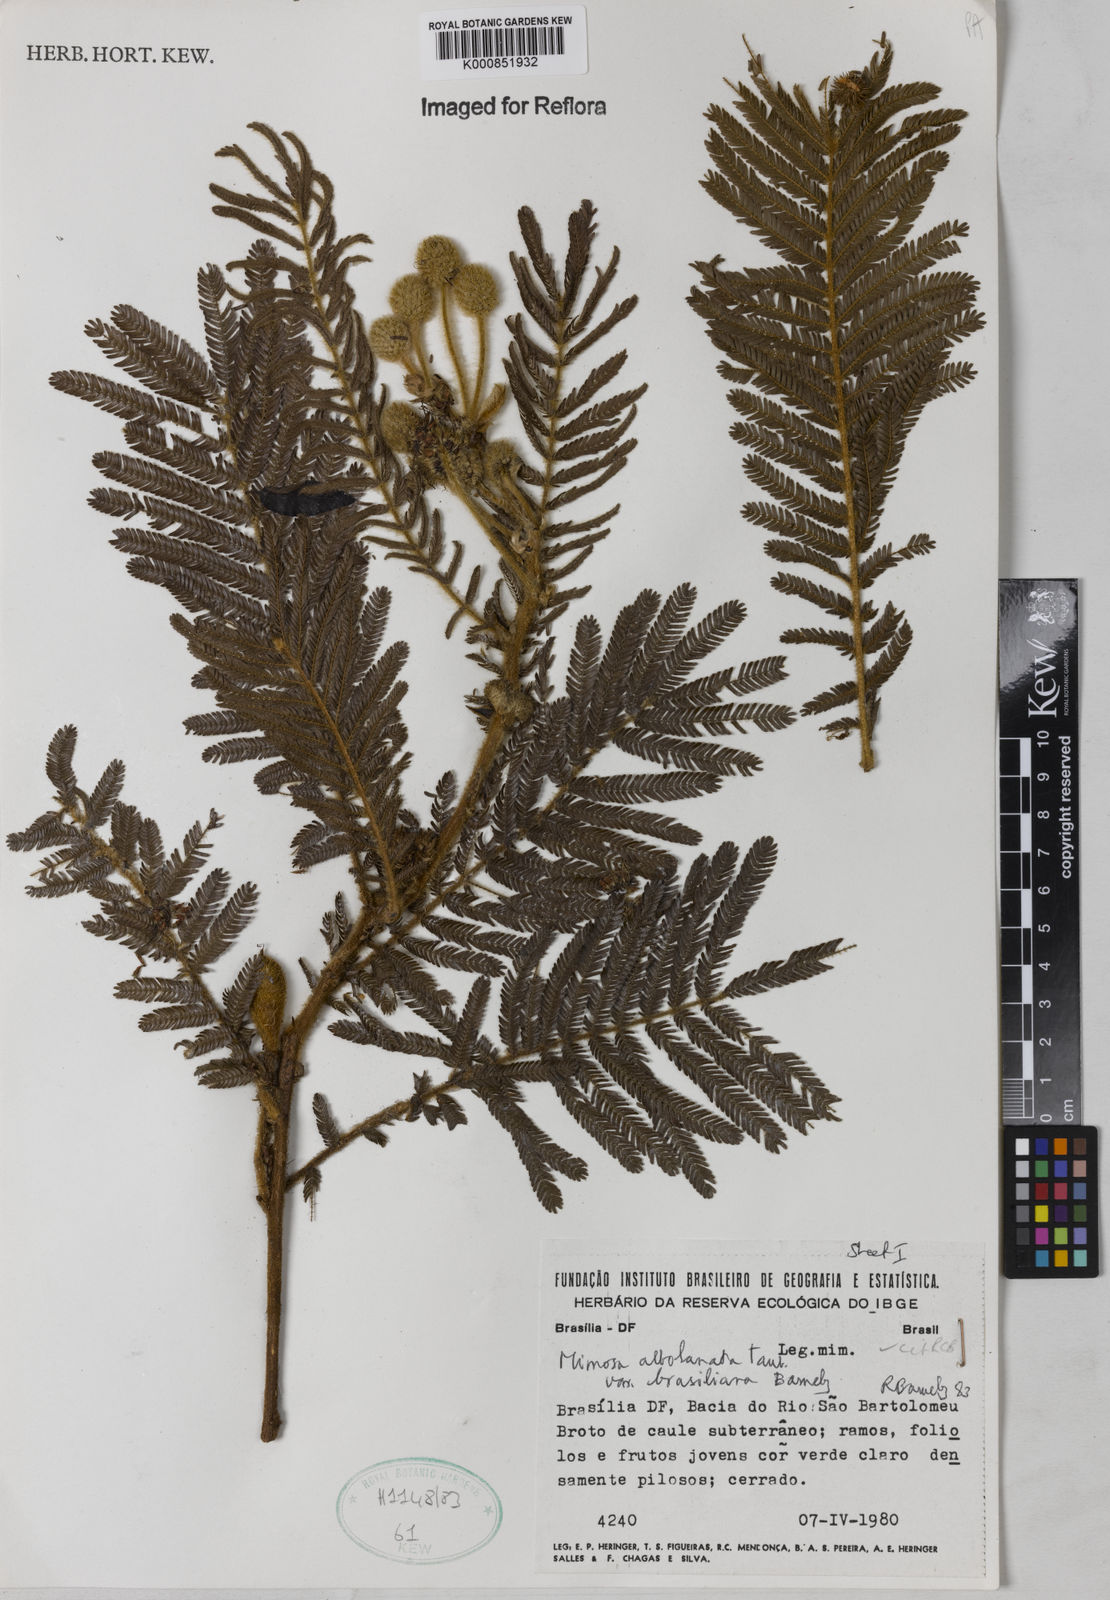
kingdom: Plantae
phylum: Tracheophyta
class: Magnoliopsida
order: Fabales
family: Fabaceae
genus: Mimosa
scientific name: Mimosa albolanata
